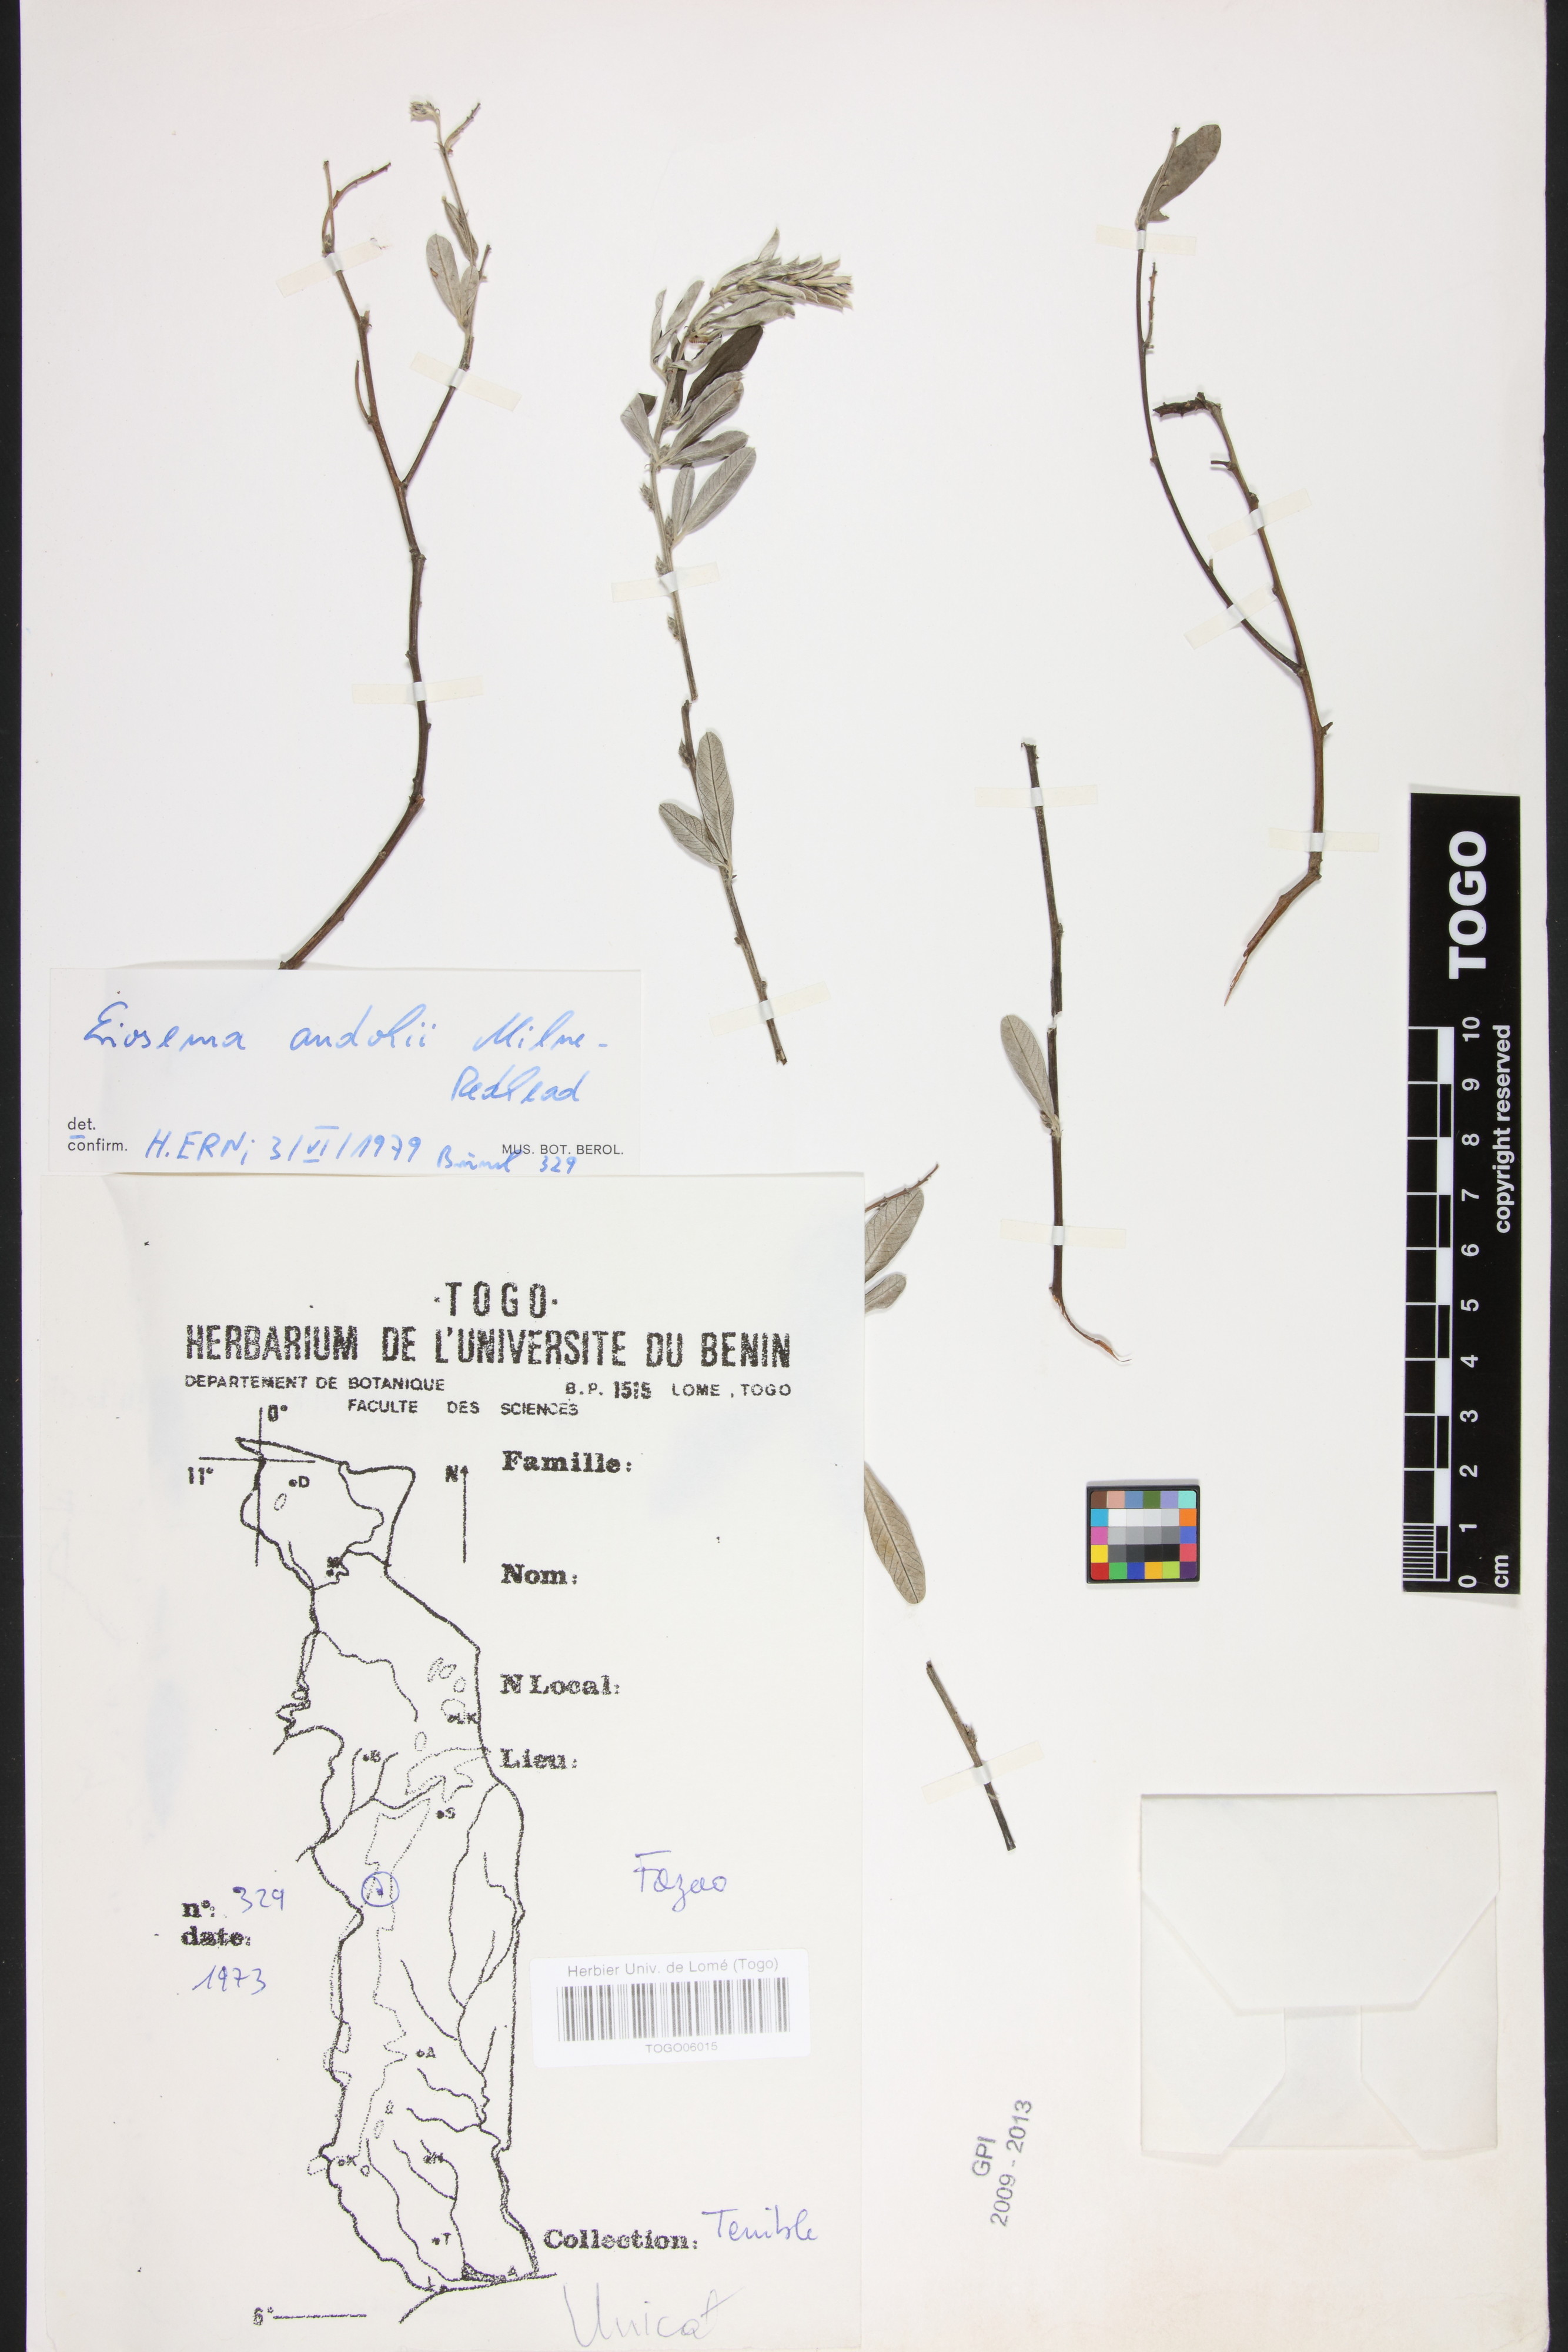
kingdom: Plantae
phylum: Tracheophyta
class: Magnoliopsida
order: Fabales
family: Fabaceae
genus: Eriosema
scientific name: Eriosema andohii
